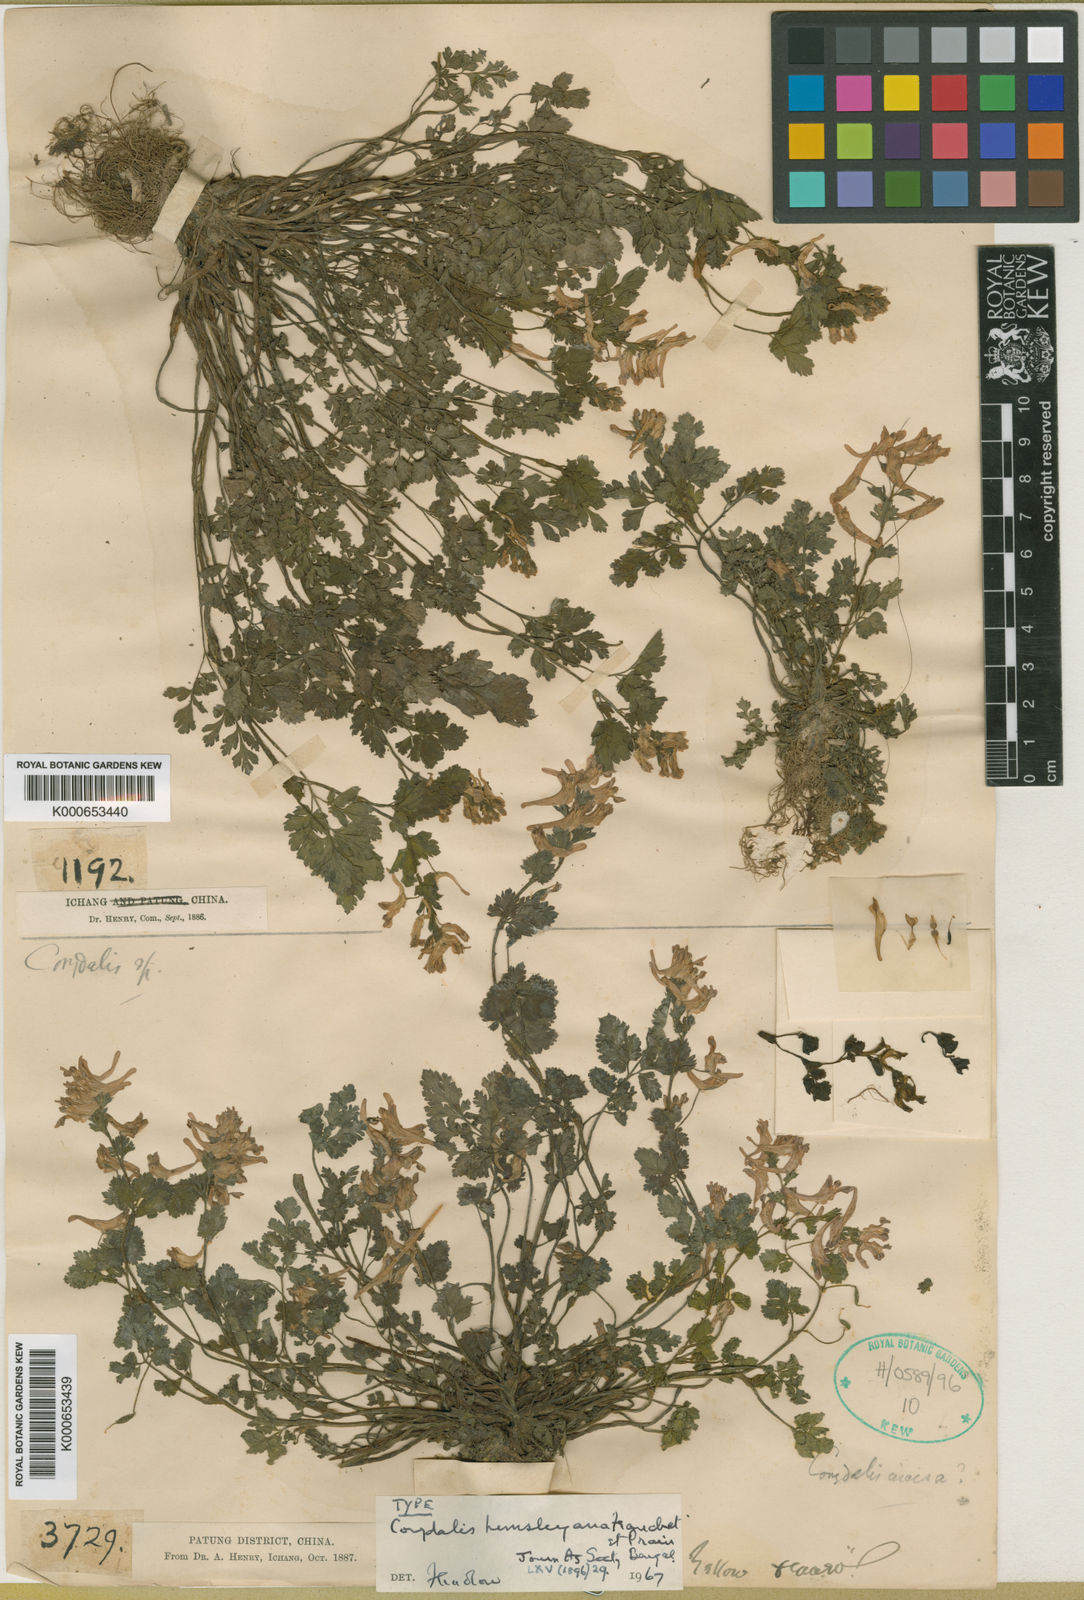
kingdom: Plantae
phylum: Tracheophyta
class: Magnoliopsida
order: Ranunculales
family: Papaveraceae
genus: Corydalis
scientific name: Corydalis hemsleyana
